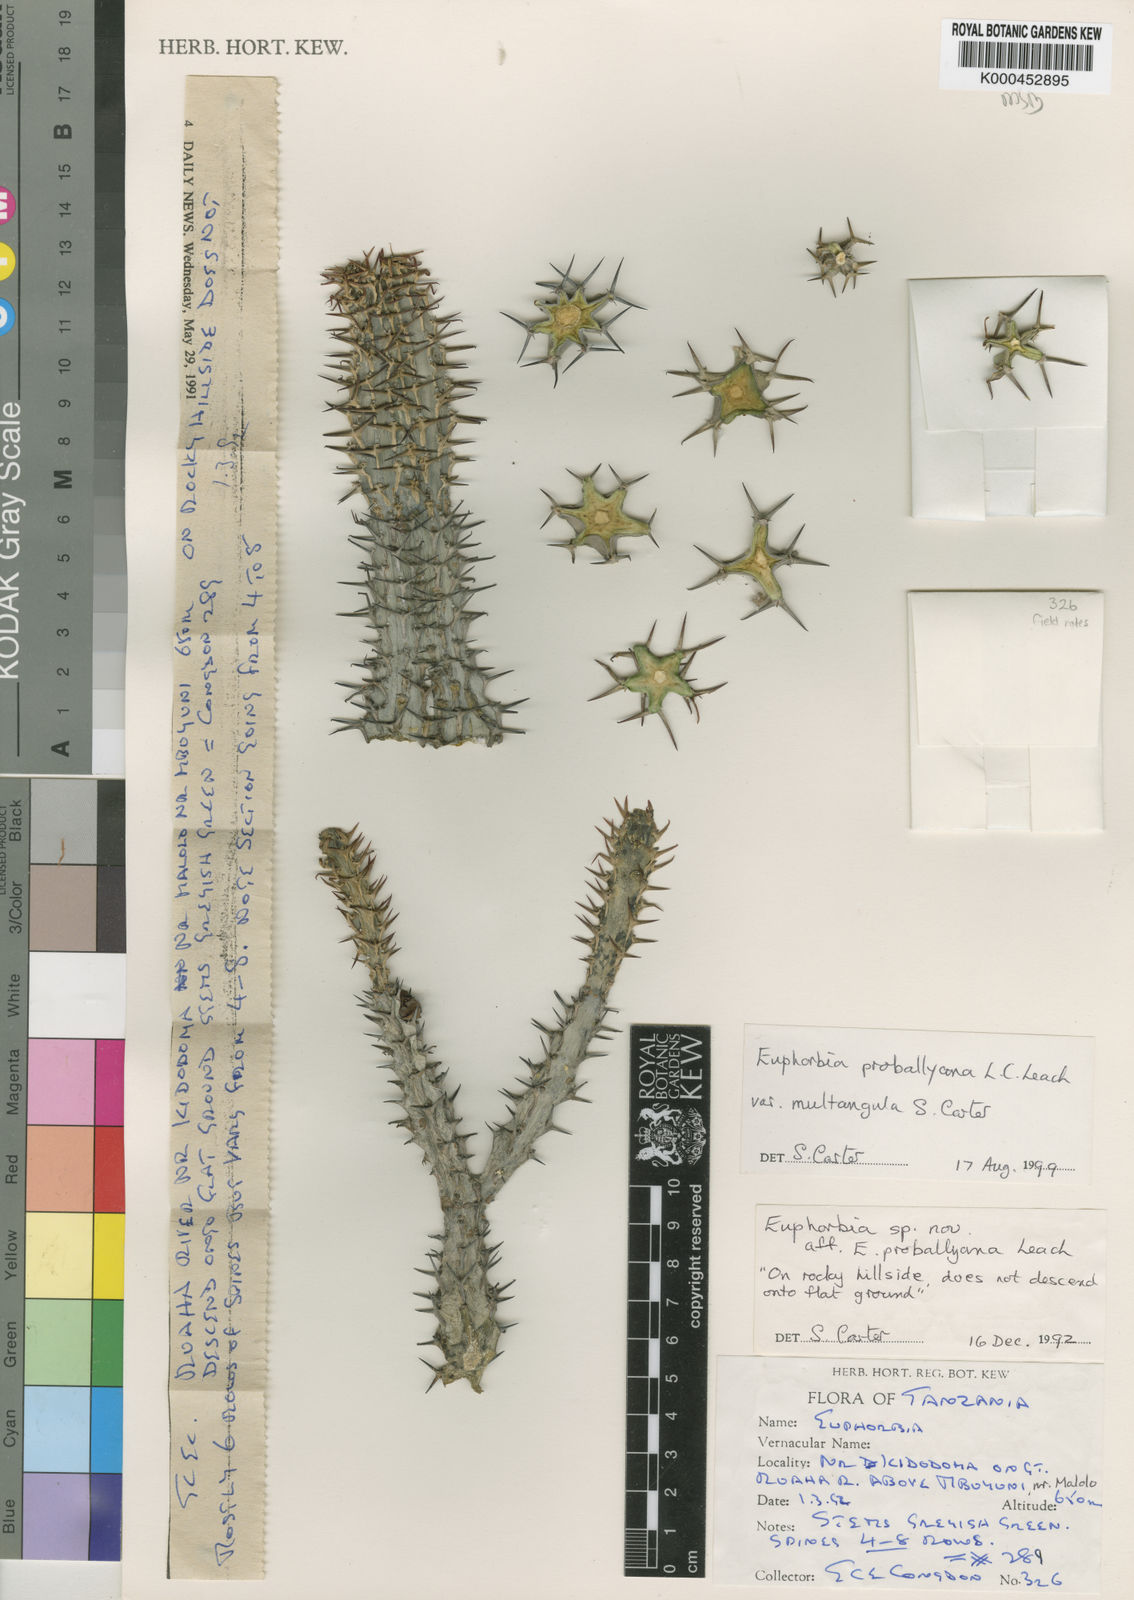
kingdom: Plantae
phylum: Tracheophyta
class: Magnoliopsida
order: Malpighiales
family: Euphorbiaceae
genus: Euphorbia
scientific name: Euphorbia proballyana
